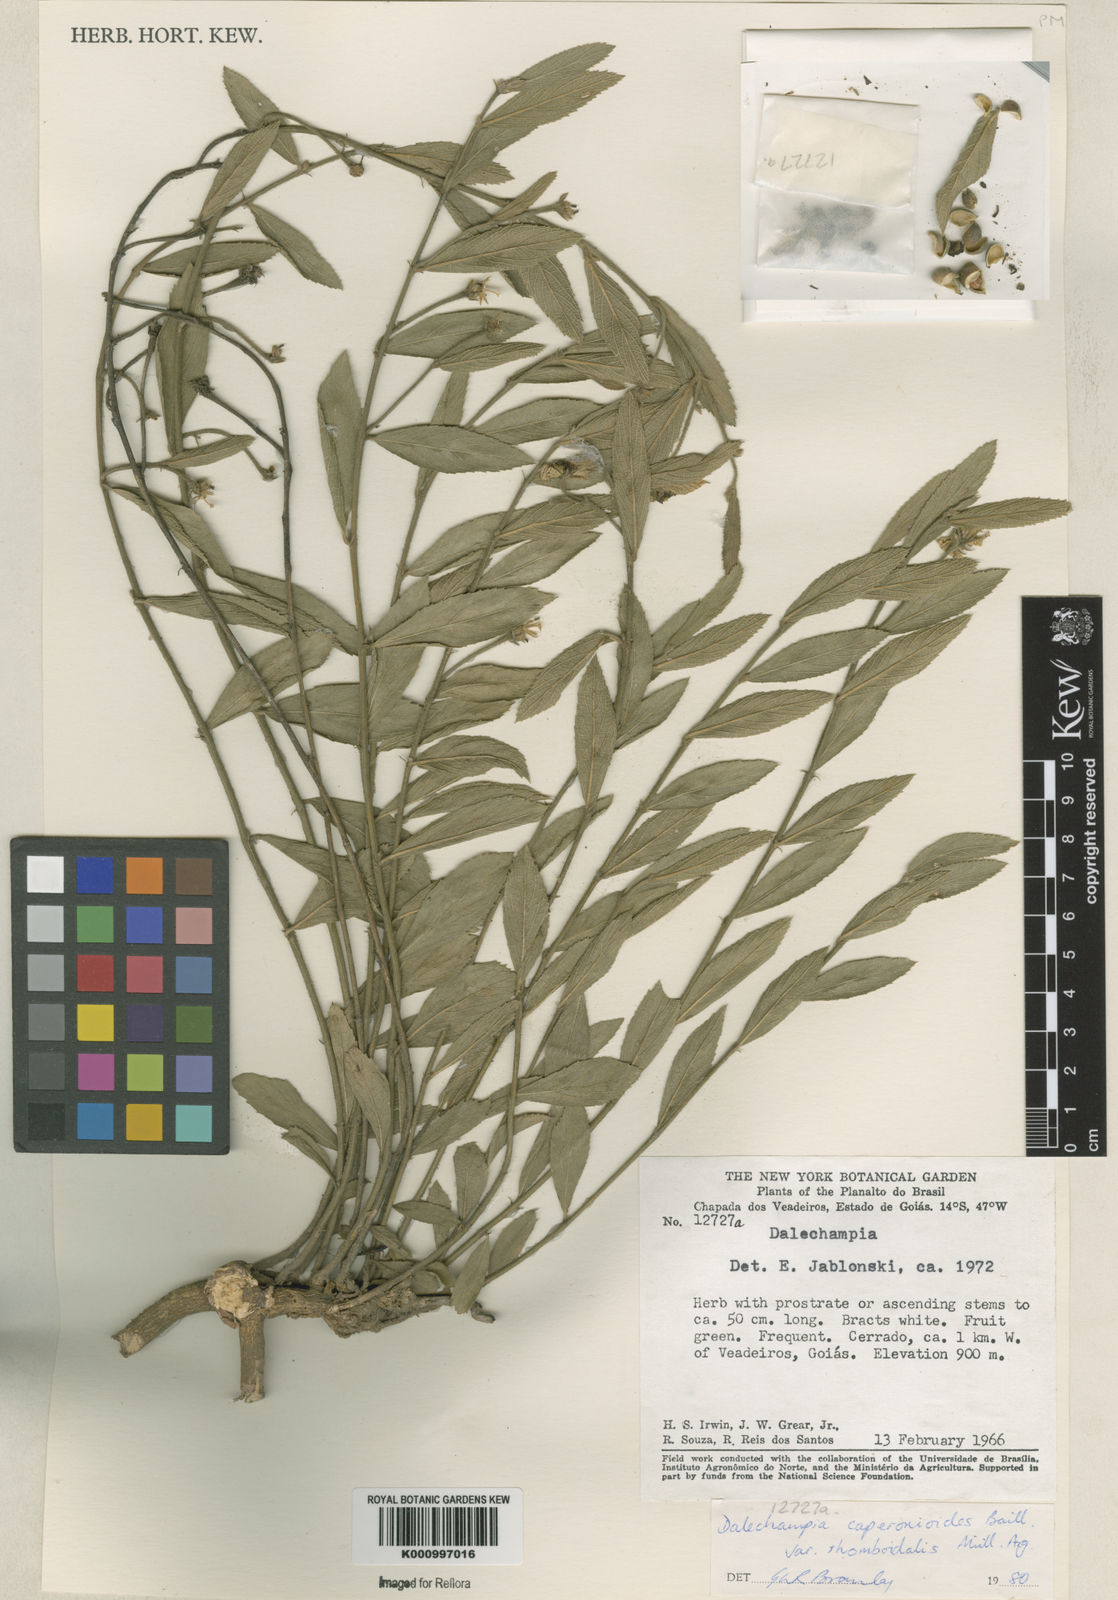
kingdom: Plantae
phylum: Tracheophyta
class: Magnoliopsida
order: Malpighiales
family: Euphorbiaceae
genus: Dalechampia
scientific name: Dalechampia caperonioides
